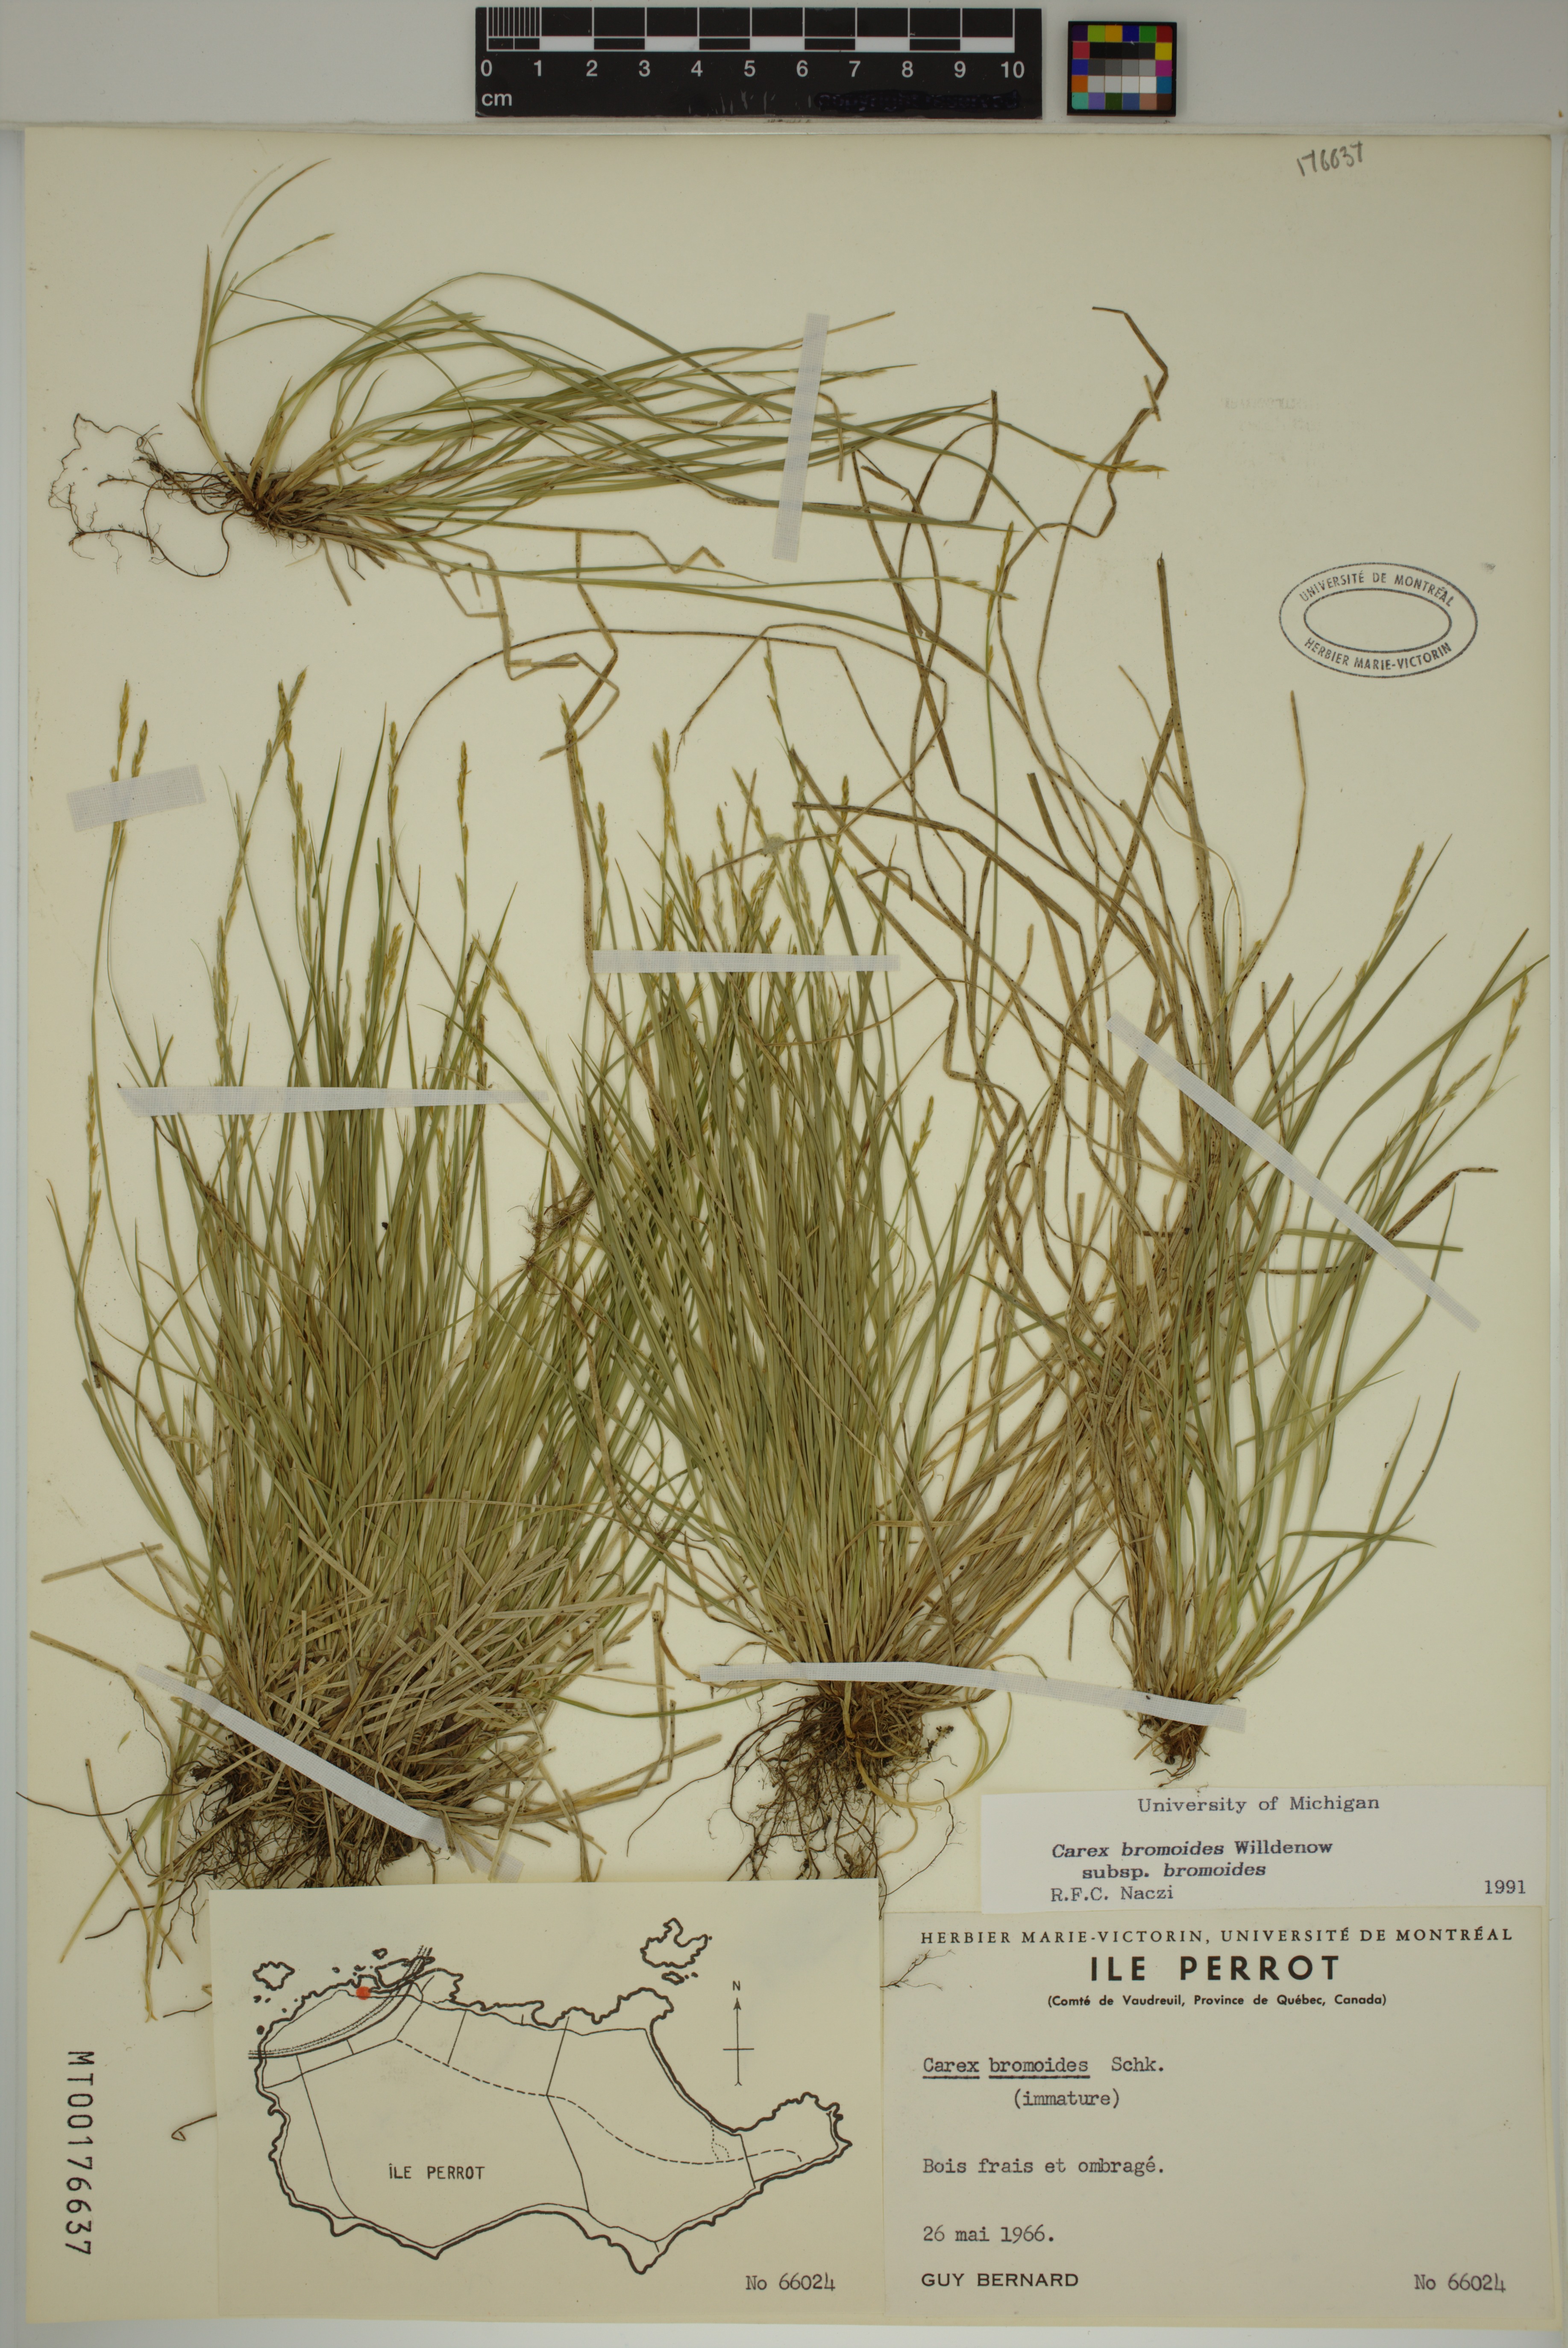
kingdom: Plantae
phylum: Tracheophyta
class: Liliopsida
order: Poales
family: Cyperaceae
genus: Carex
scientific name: Carex bromoides
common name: Brome hummock sedge
